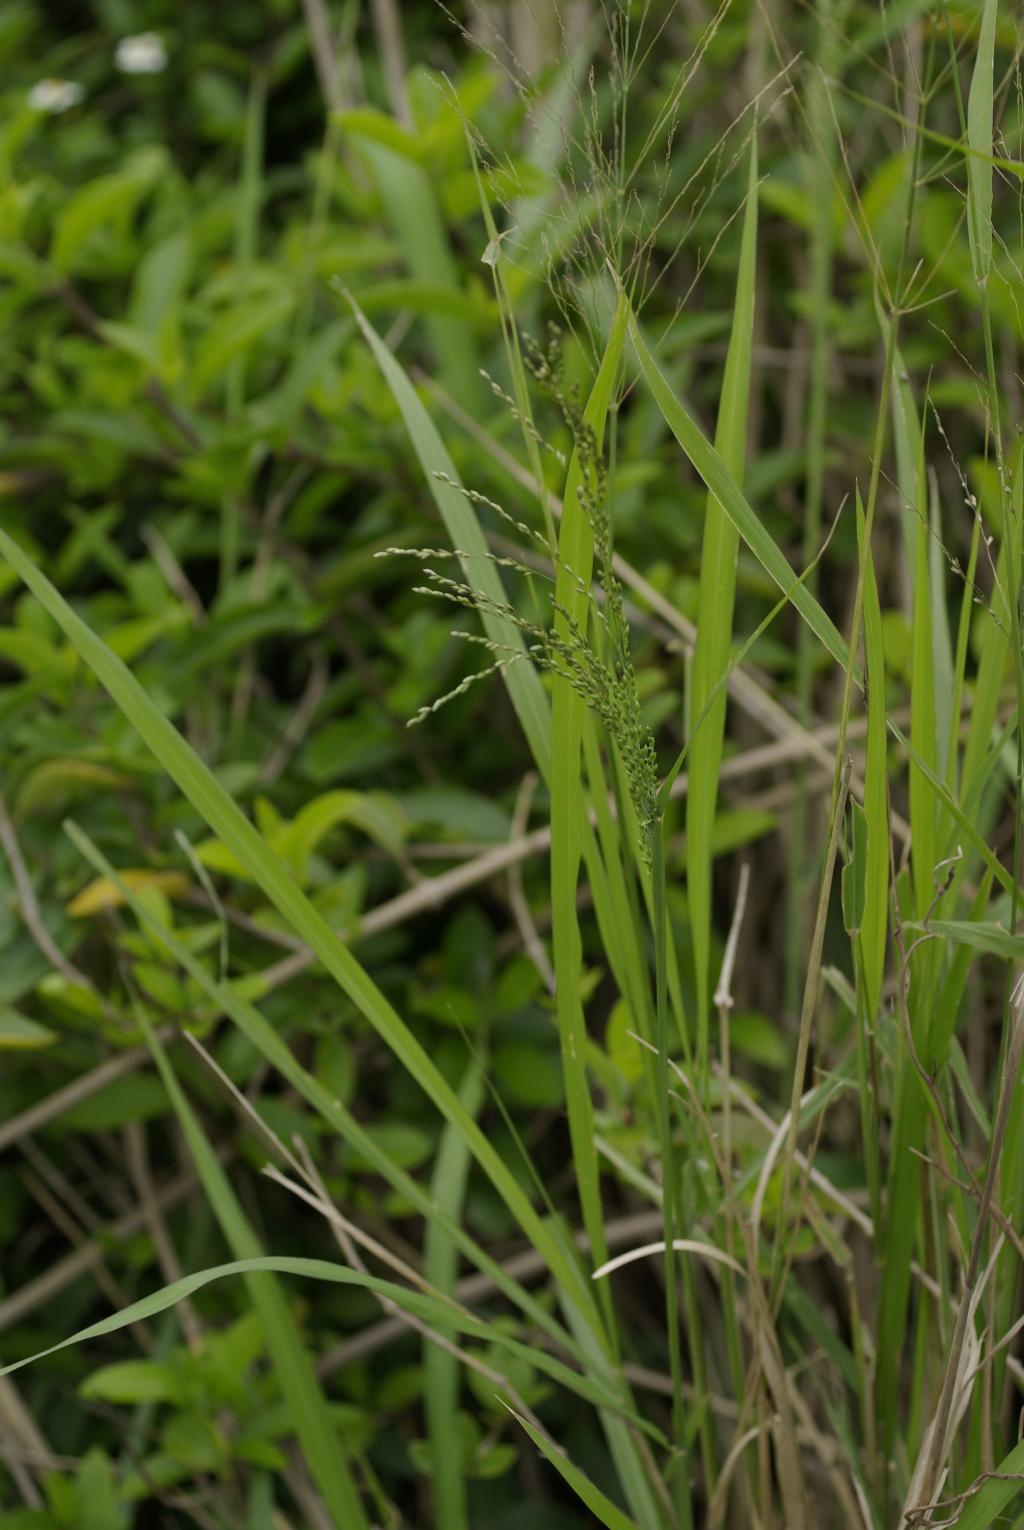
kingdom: Plantae
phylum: Tracheophyta
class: Liliopsida
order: Poales
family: Poaceae
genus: Megathyrsus
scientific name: Megathyrsus maximus
